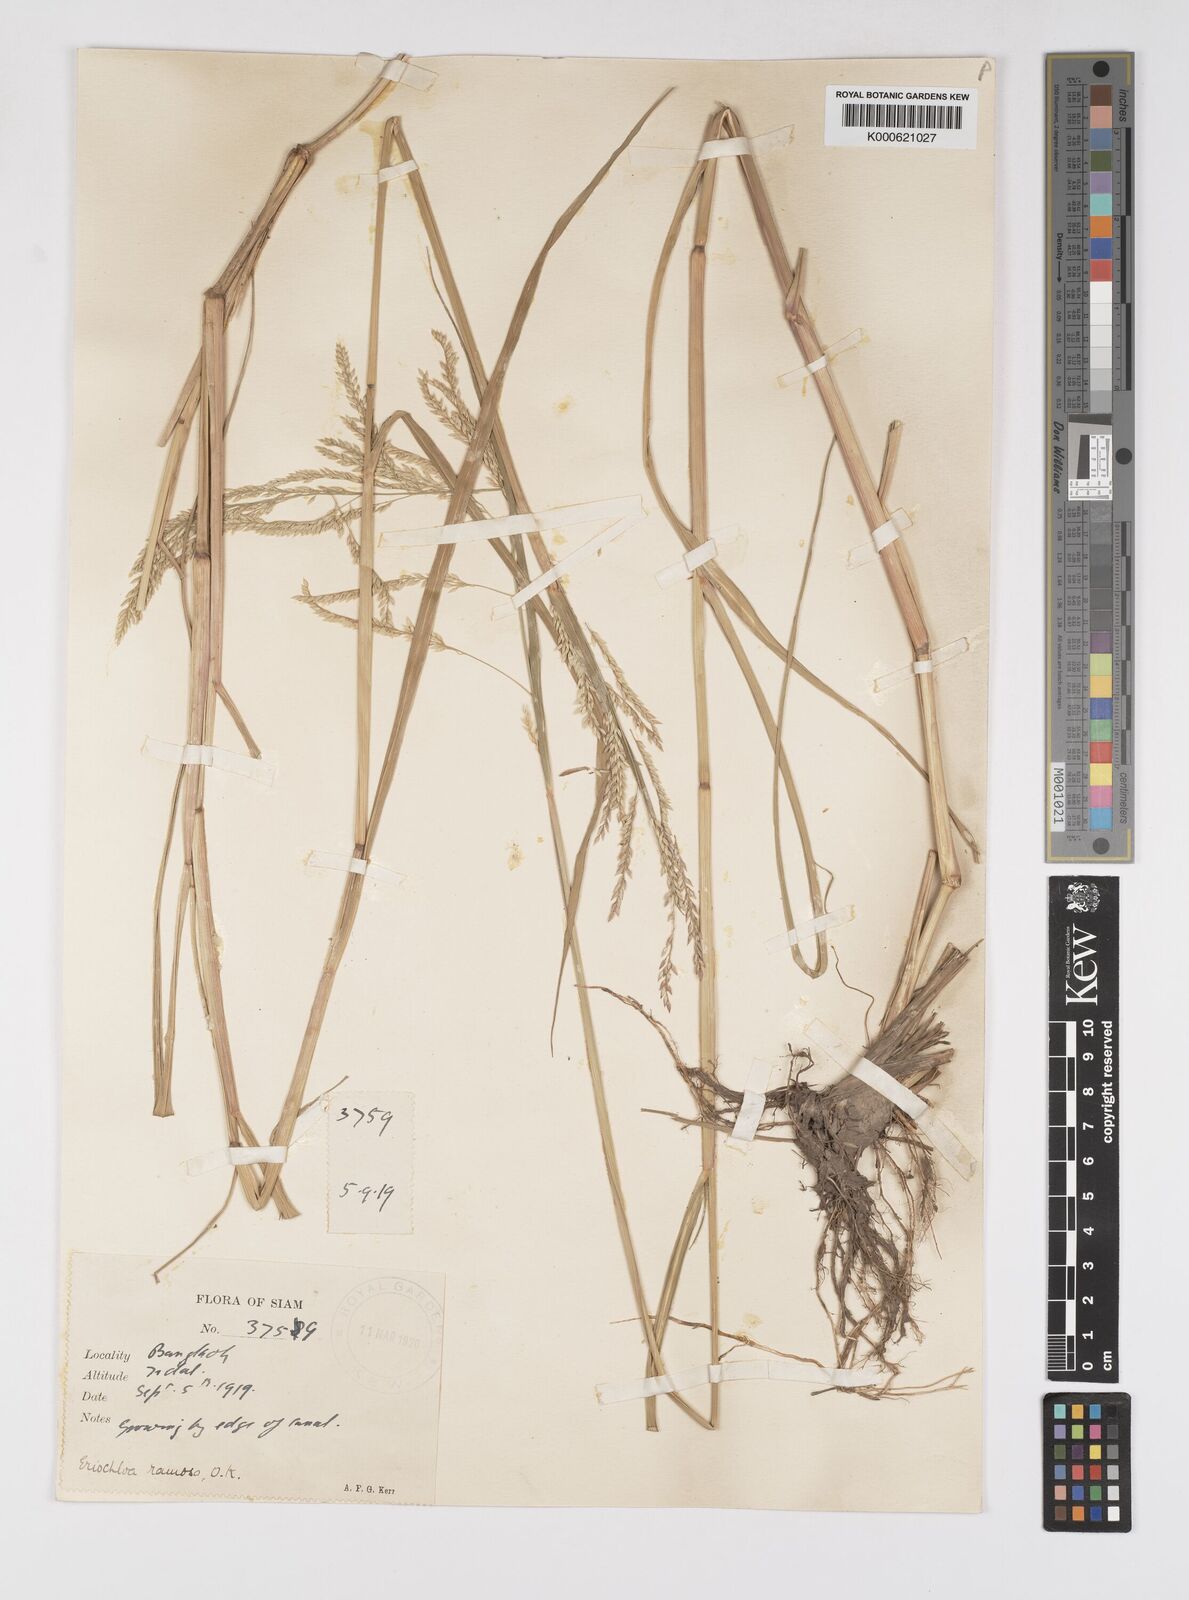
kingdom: Plantae
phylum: Tracheophyta
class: Liliopsida
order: Poales
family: Poaceae
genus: Eriochloa
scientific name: Eriochloa procera
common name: Spring grass
